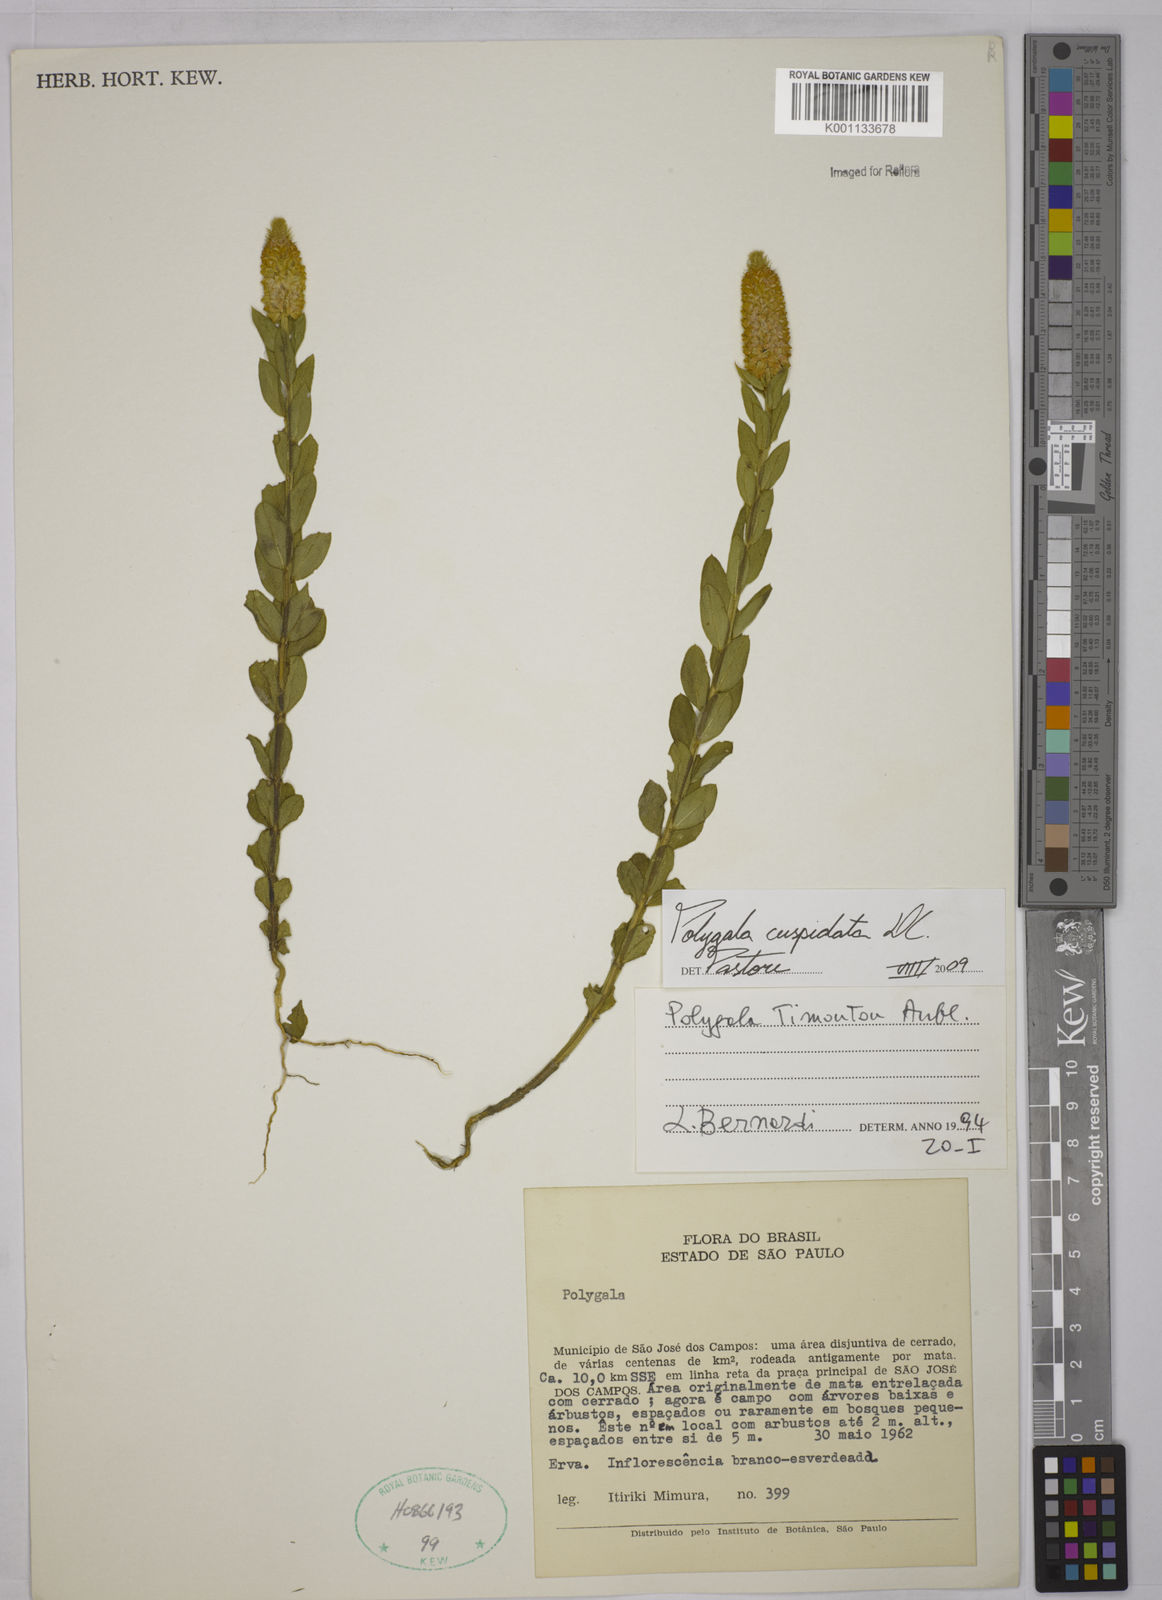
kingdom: Plantae
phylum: Tracheophyta
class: Magnoliopsida
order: Fabales
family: Polygalaceae
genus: Polygala
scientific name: Polygala cuspidata
